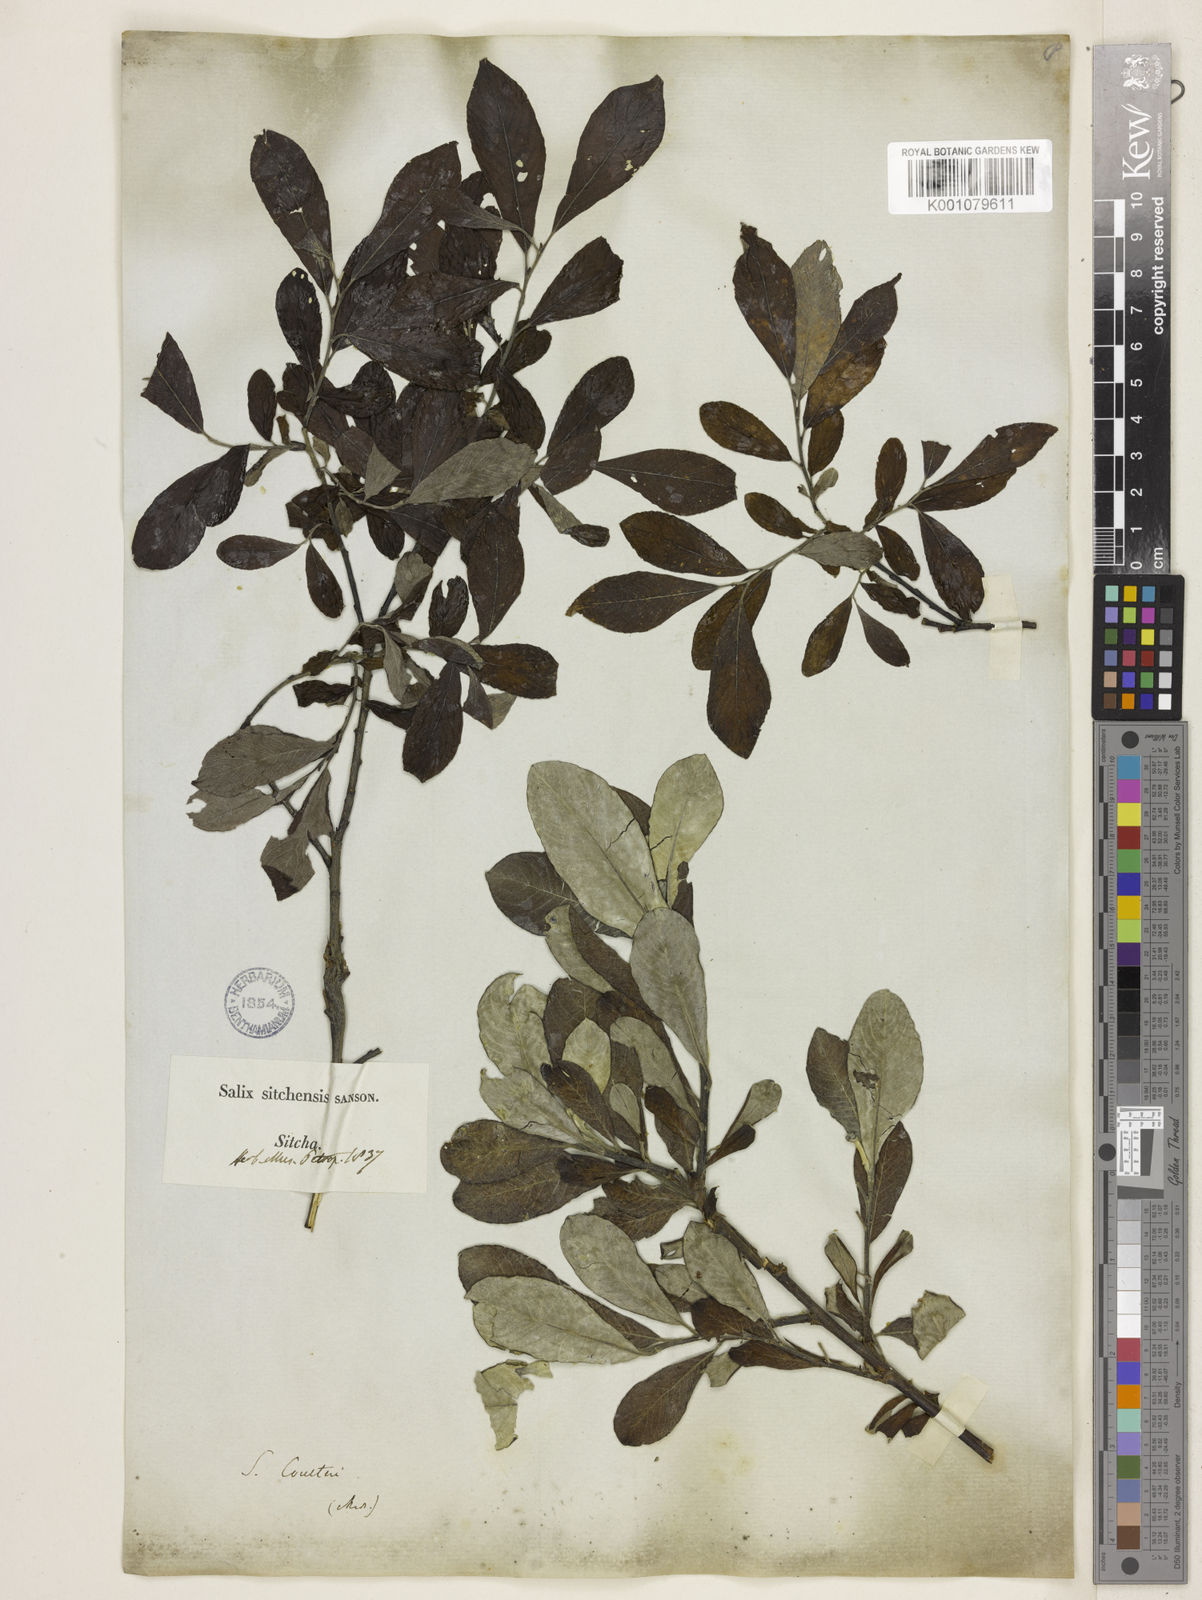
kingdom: Plantae
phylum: Tracheophyta
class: Magnoliopsida
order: Malpighiales
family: Salicaceae
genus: Salix
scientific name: Salix sitchensis
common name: Sitka willow
